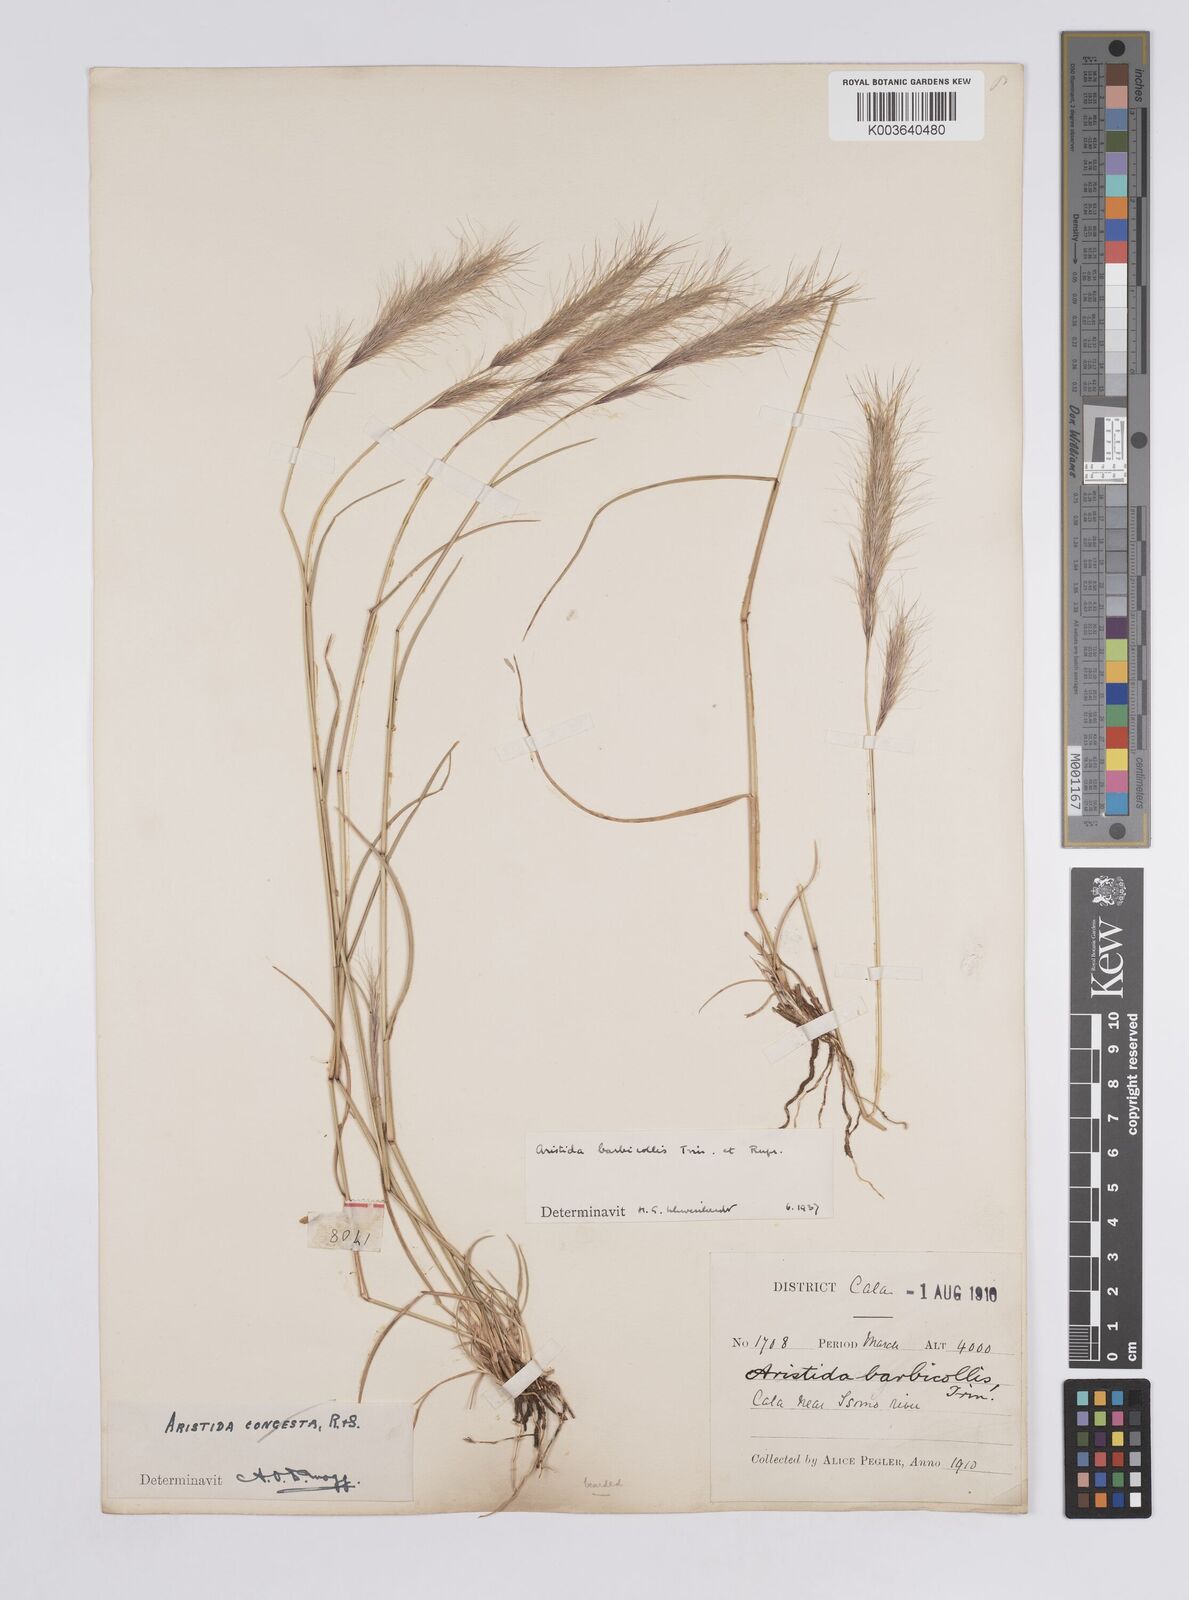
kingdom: Plantae
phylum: Tracheophyta
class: Liliopsida
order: Poales
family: Poaceae
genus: Aristida
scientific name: Aristida barbicollis
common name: Spreading prickle grass
